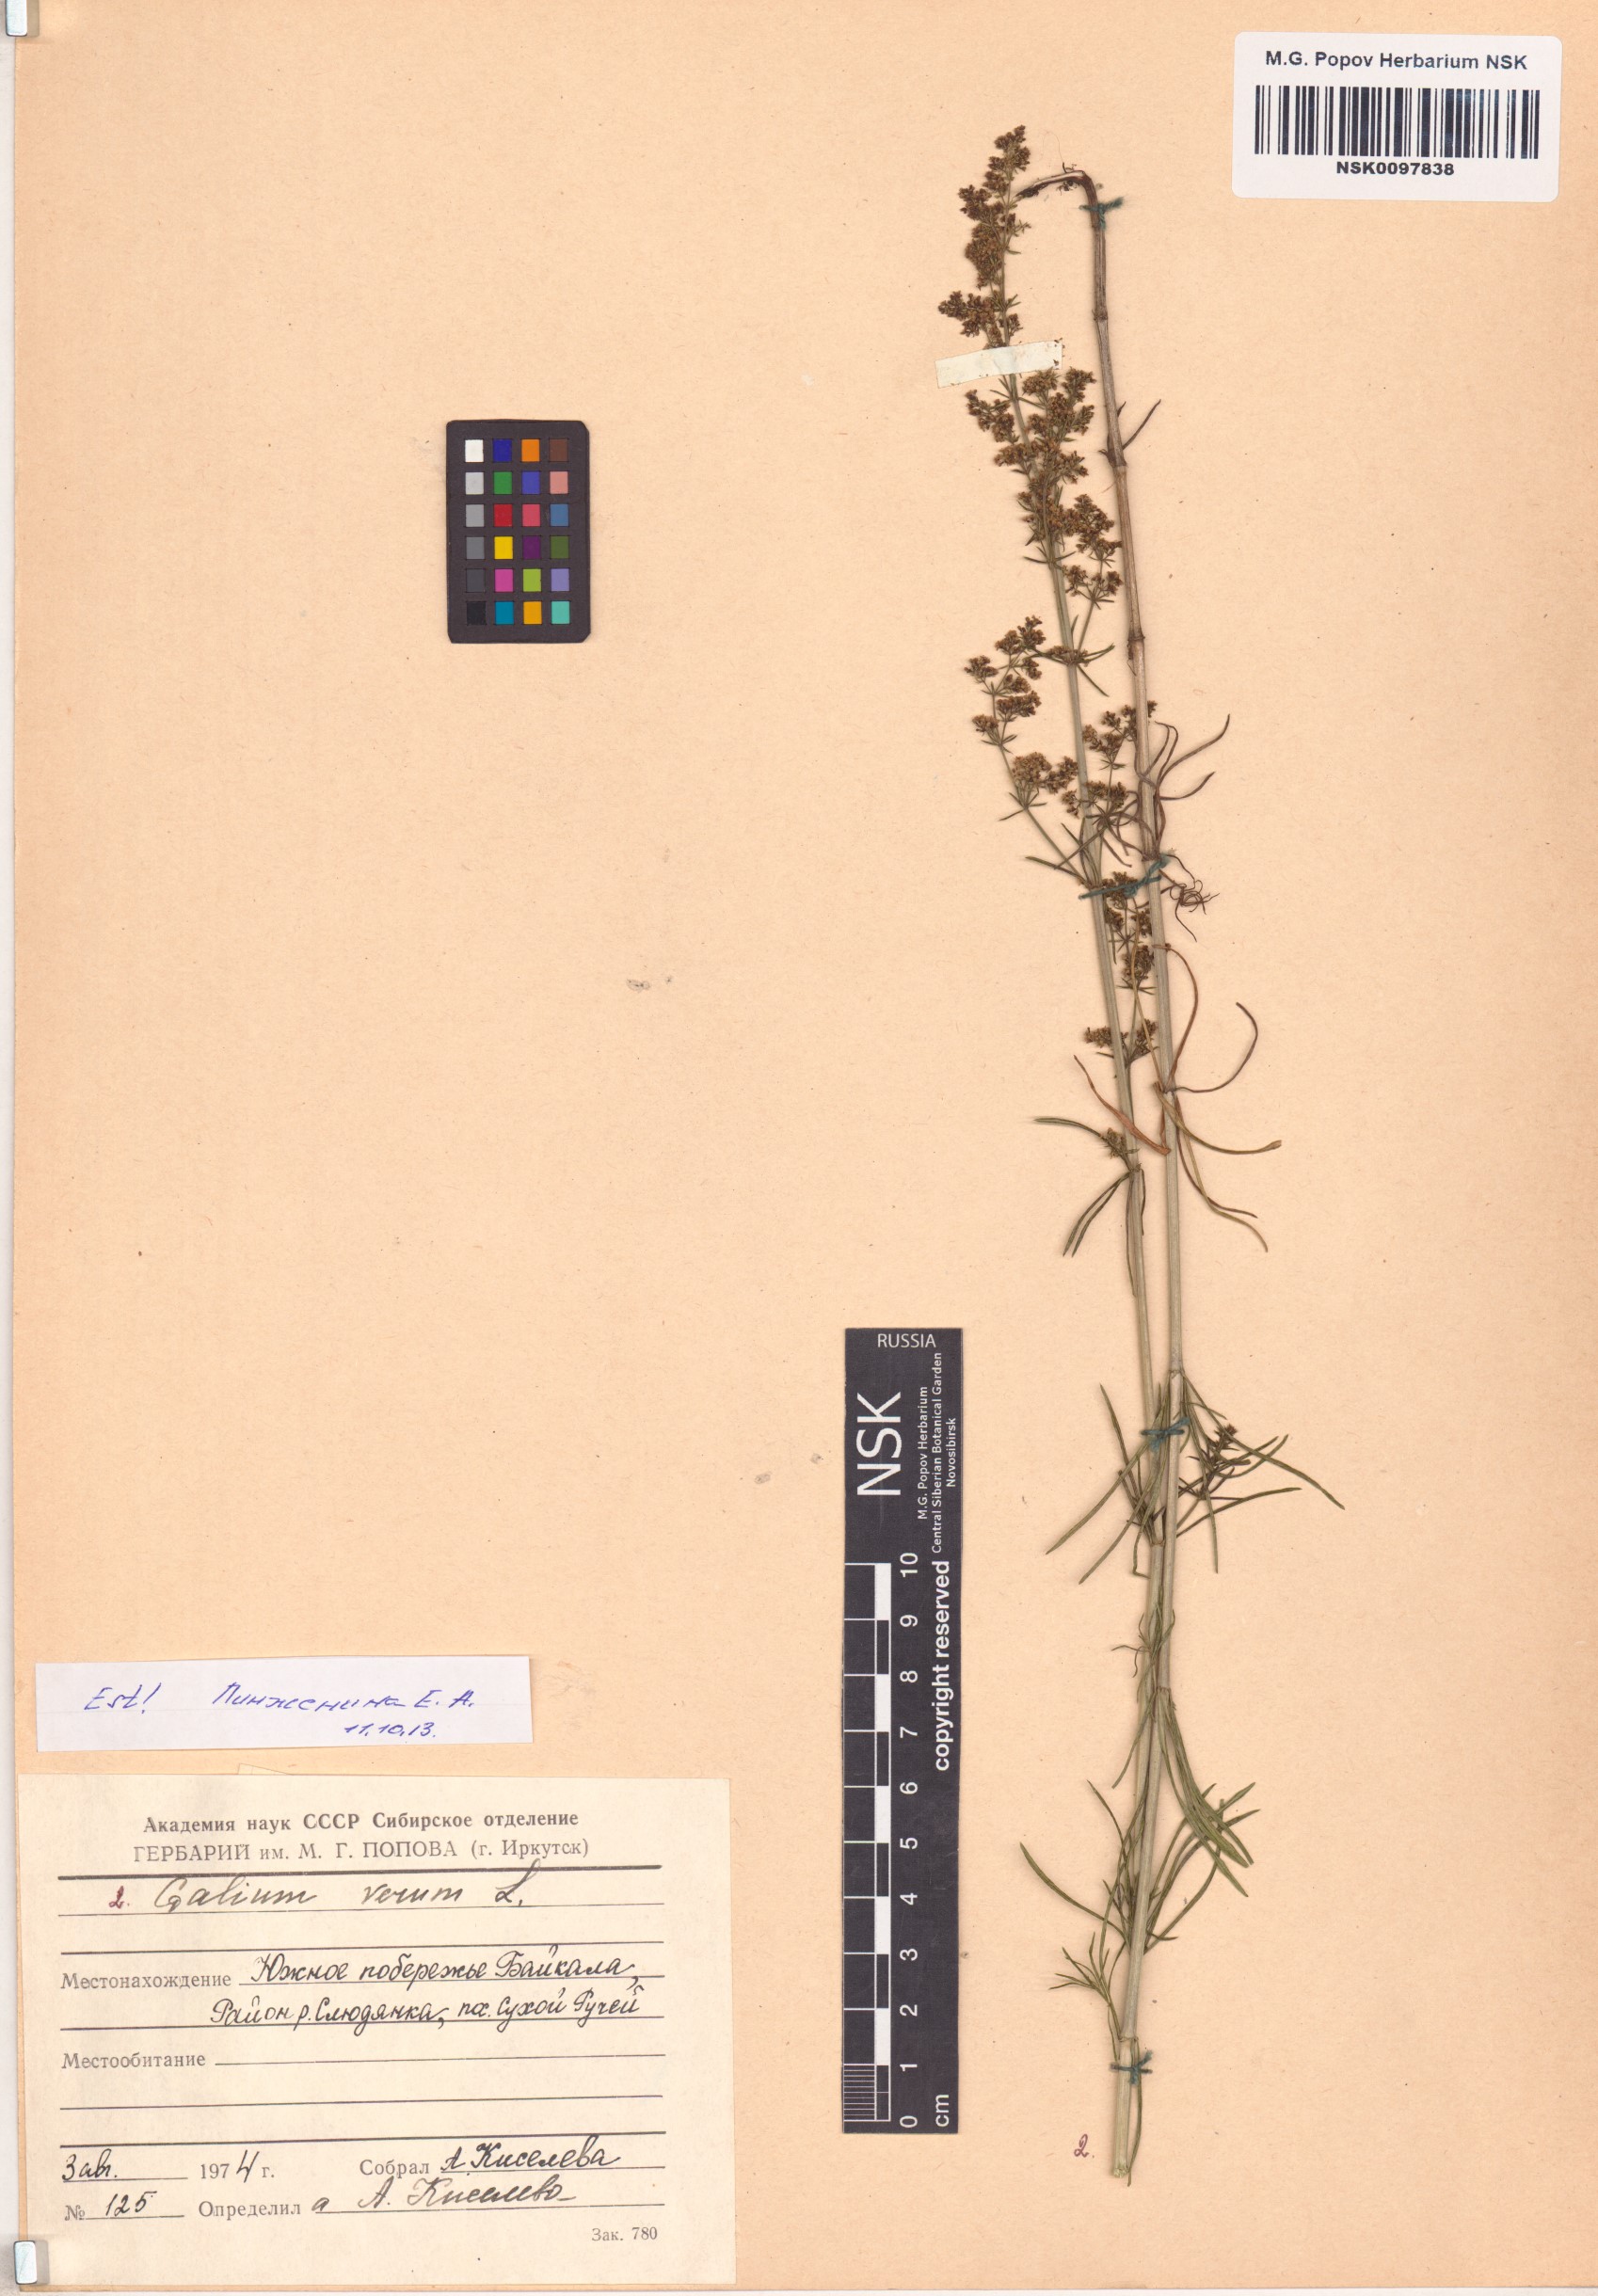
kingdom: Plantae
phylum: Tracheophyta
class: Magnoliopsida
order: Gentianales
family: Rubiaceae
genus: Galium
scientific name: Galium verum
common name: Lady's bedstraw
